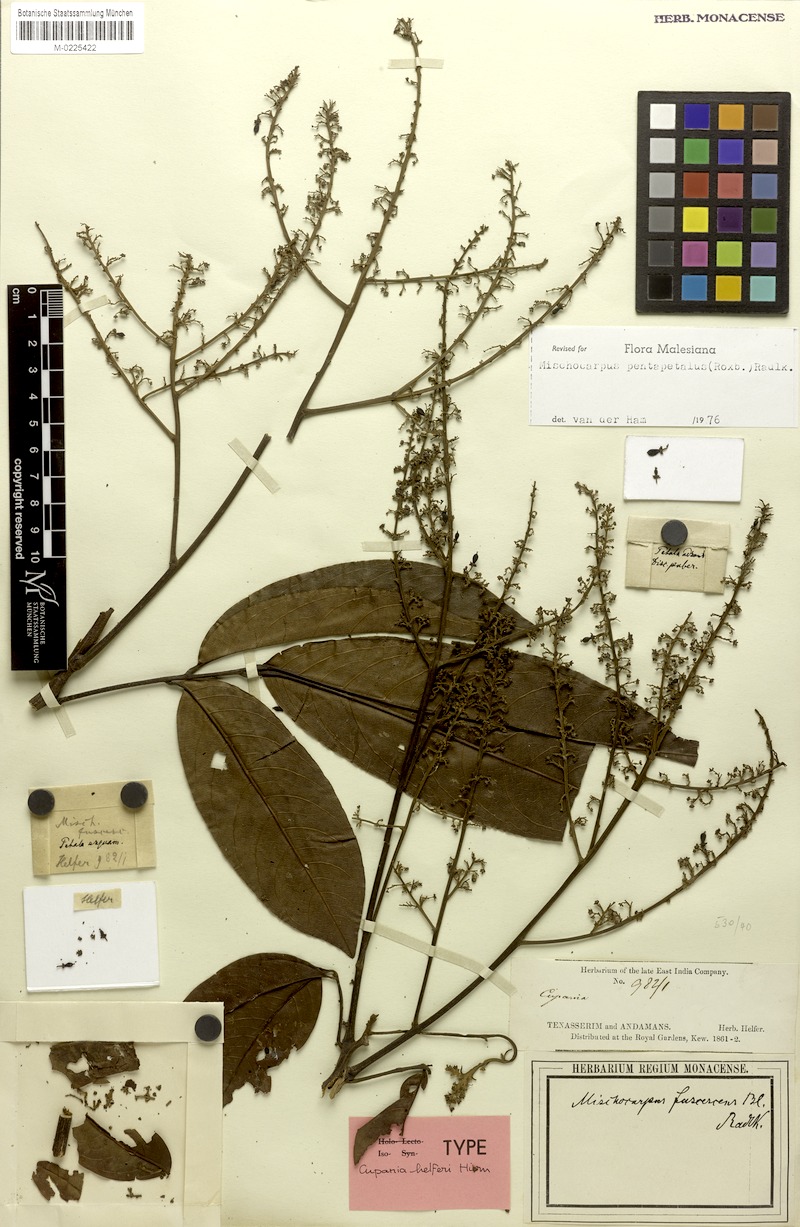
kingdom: Plantae
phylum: Tracheophyta
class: Magnoliopsida
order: Sapindales
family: Sapindaceae
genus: Mischocarpus
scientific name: Mischocarpus pentapetalus
